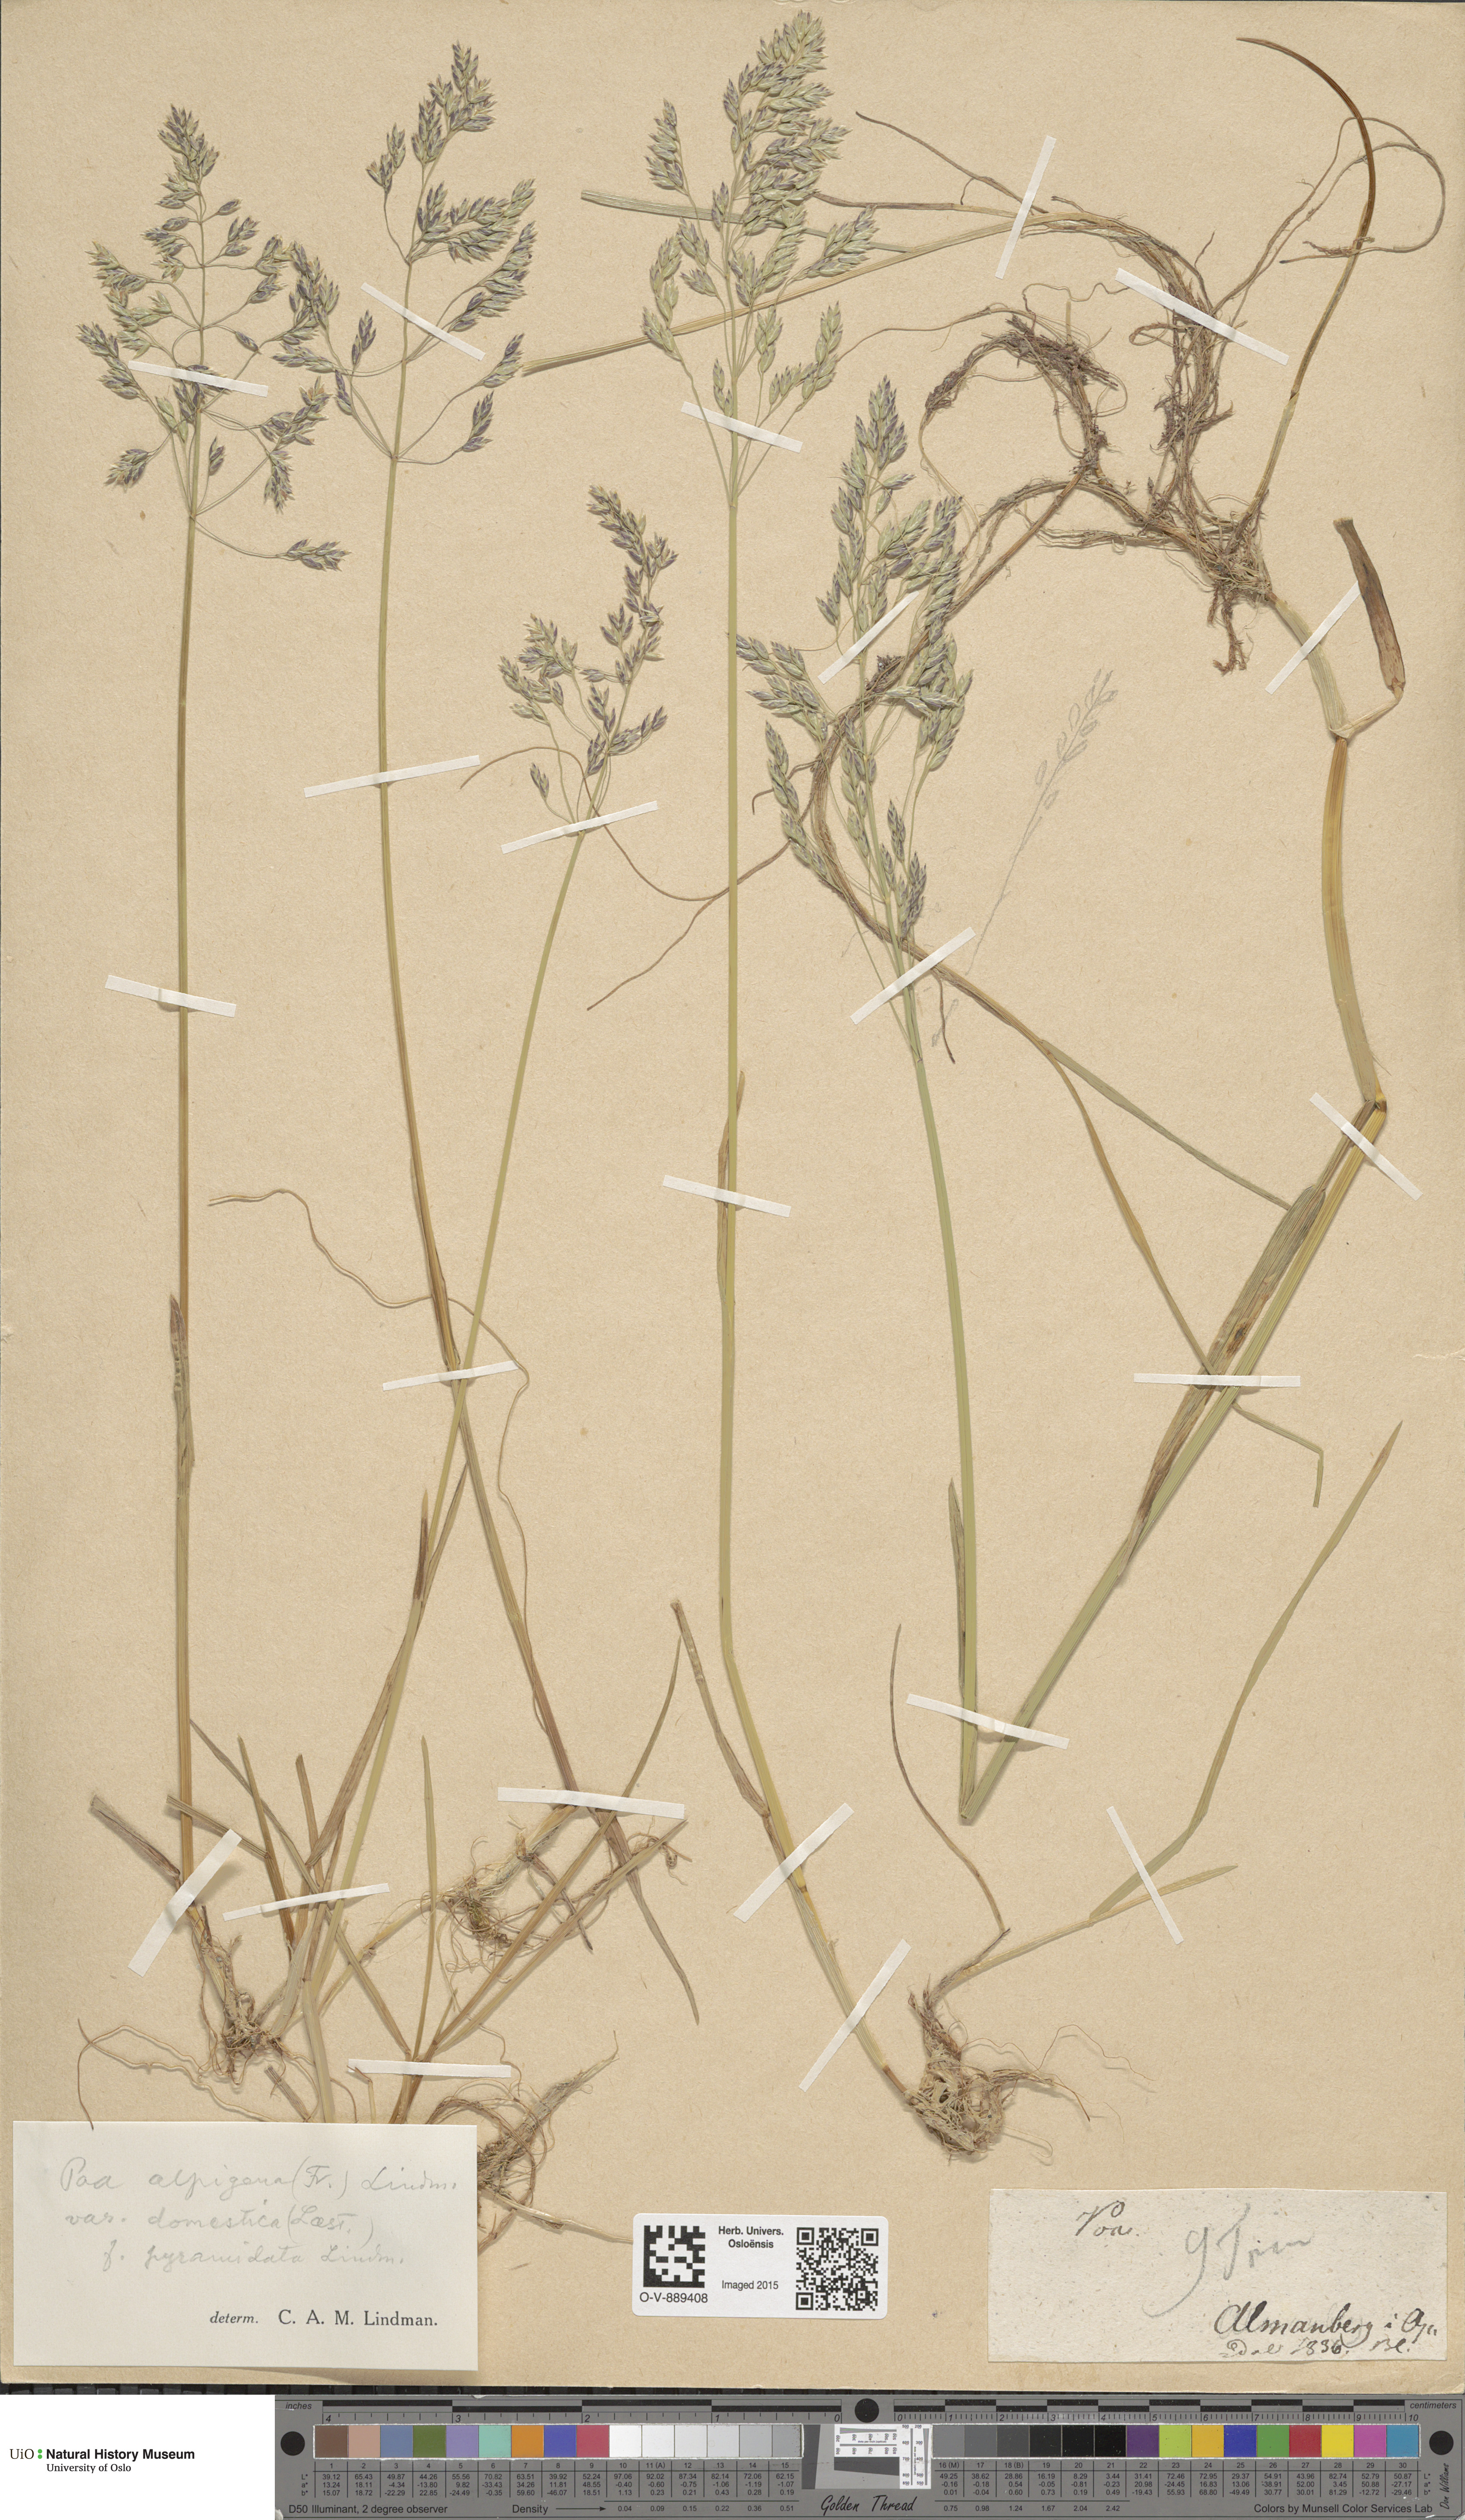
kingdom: Plantae
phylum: Tracheophyta
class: Liliopsida
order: Poales
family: Poaceae
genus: Poa
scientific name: Poa pratensis
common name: Kentucky bluegrass
